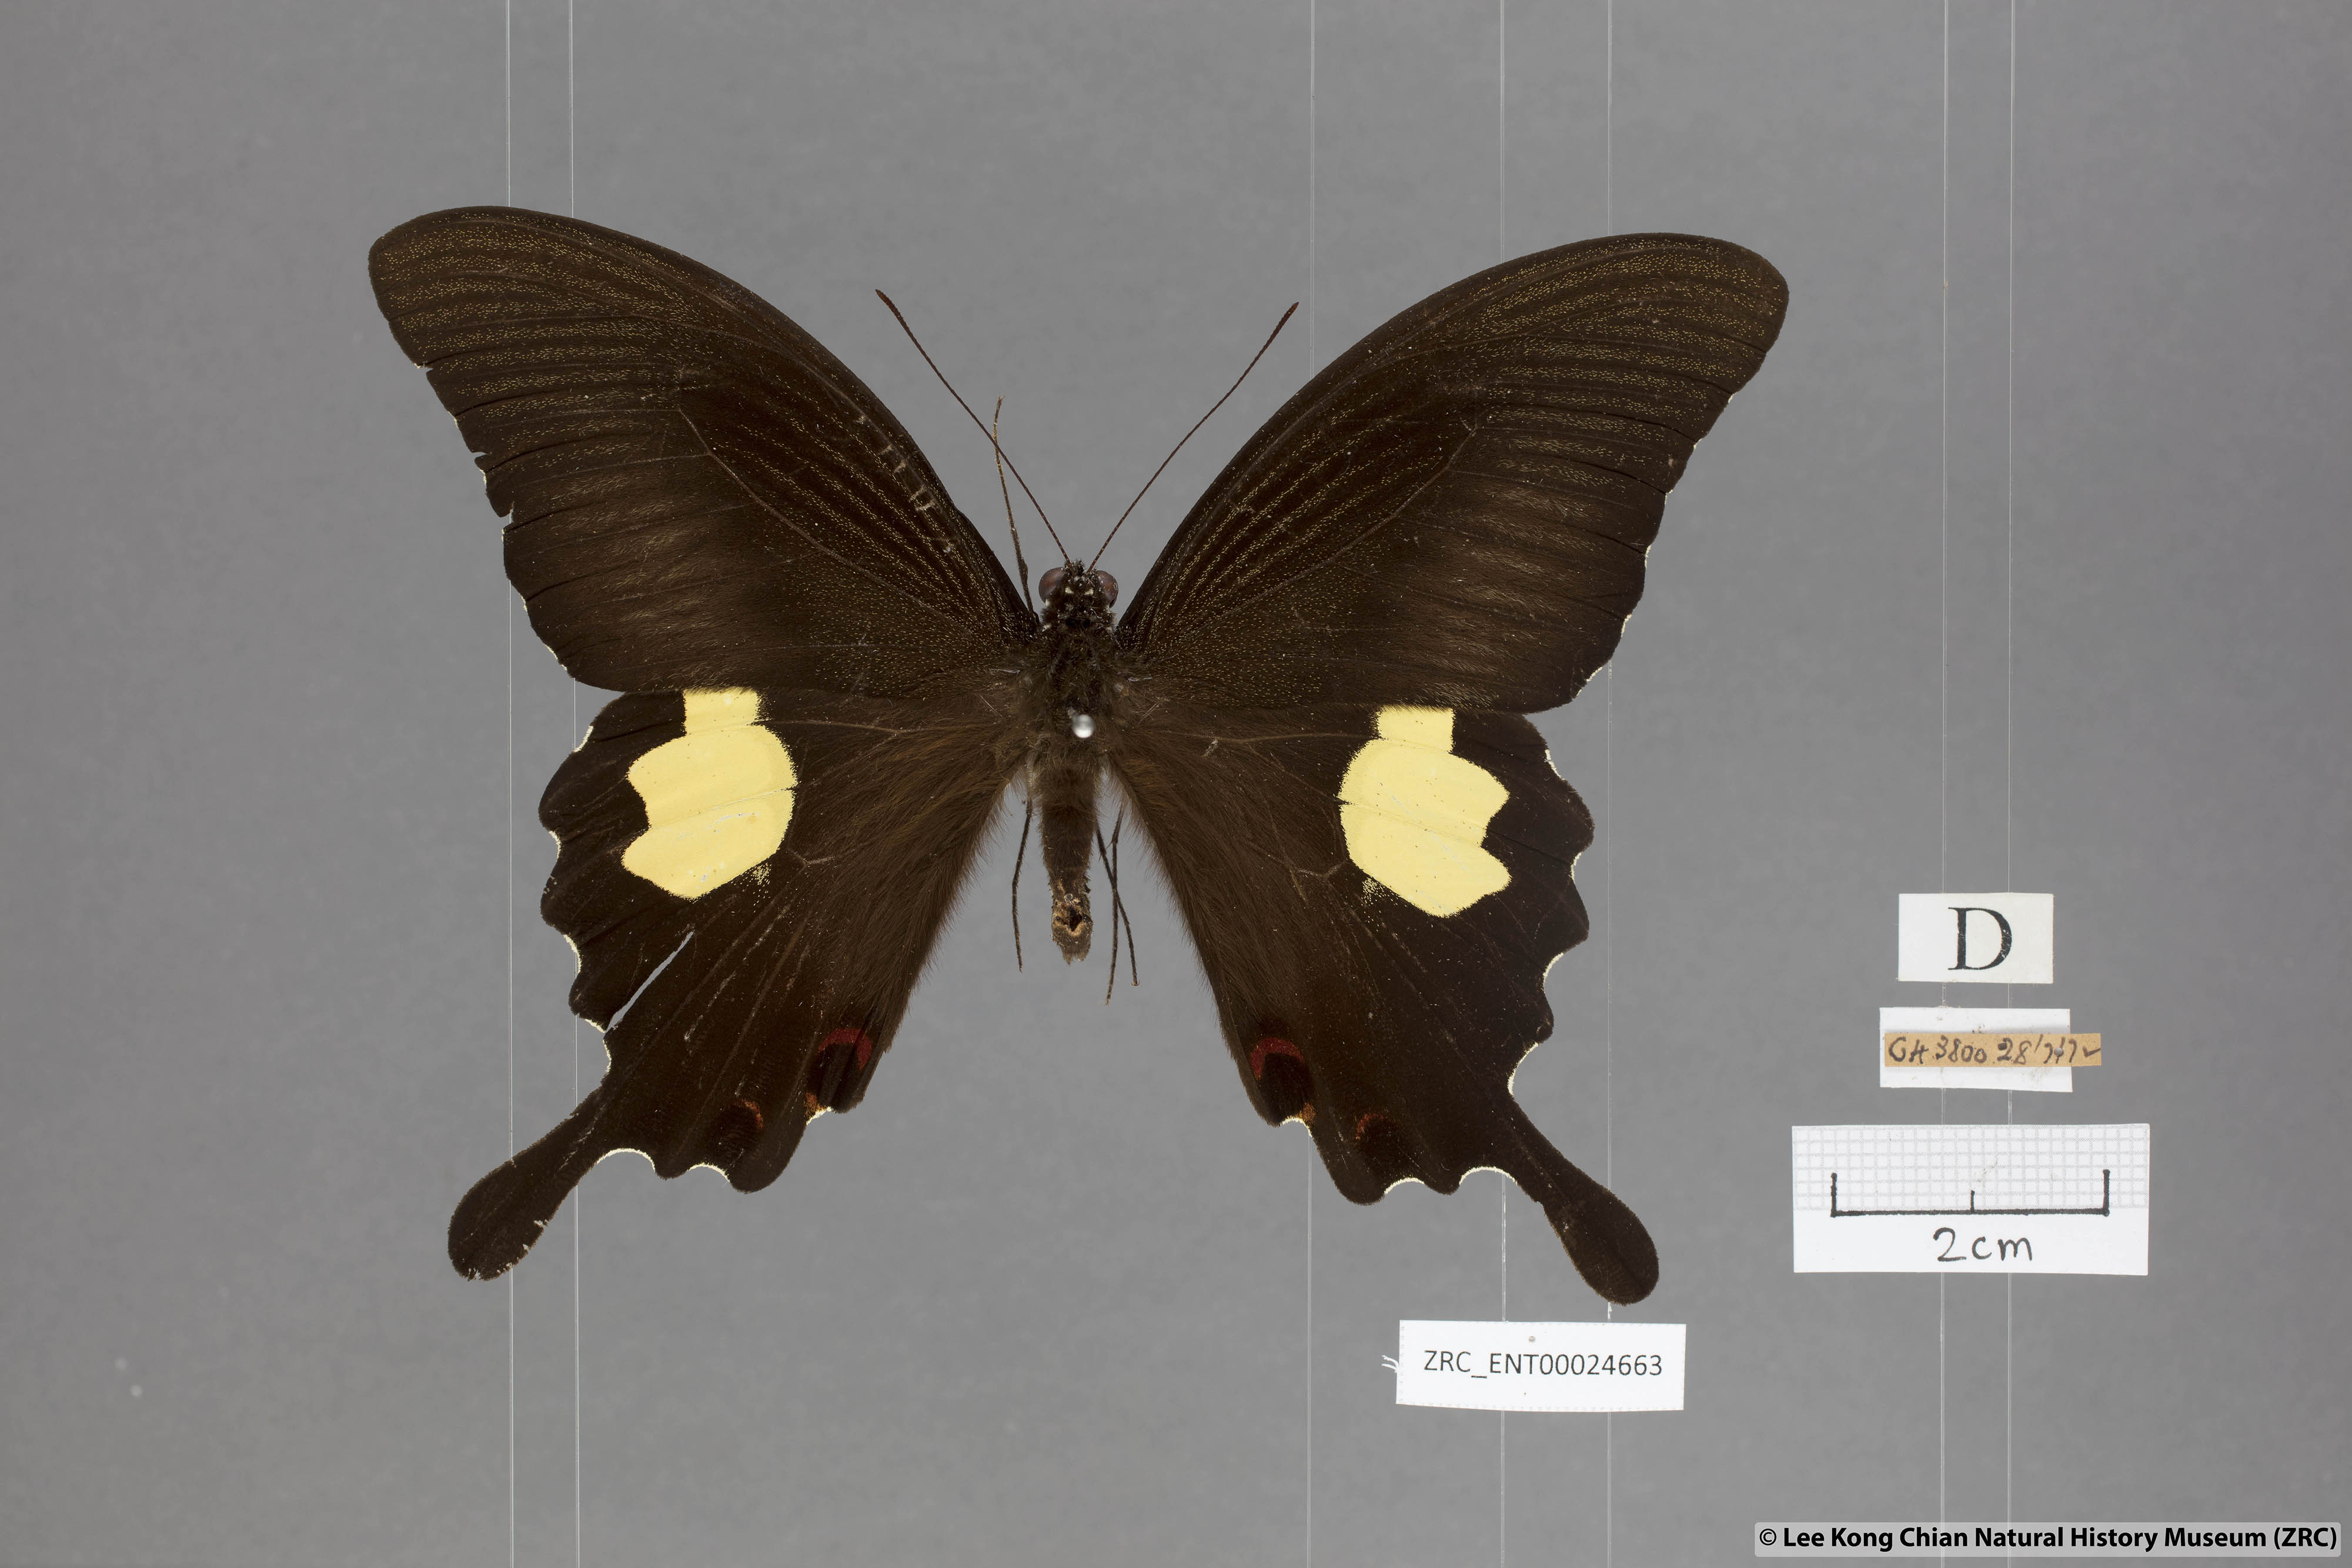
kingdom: Animalia
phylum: Arthropoda
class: Insecta
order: Lepidoptera
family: Papilionidae
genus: Papilio
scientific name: Papilio iswaroides
